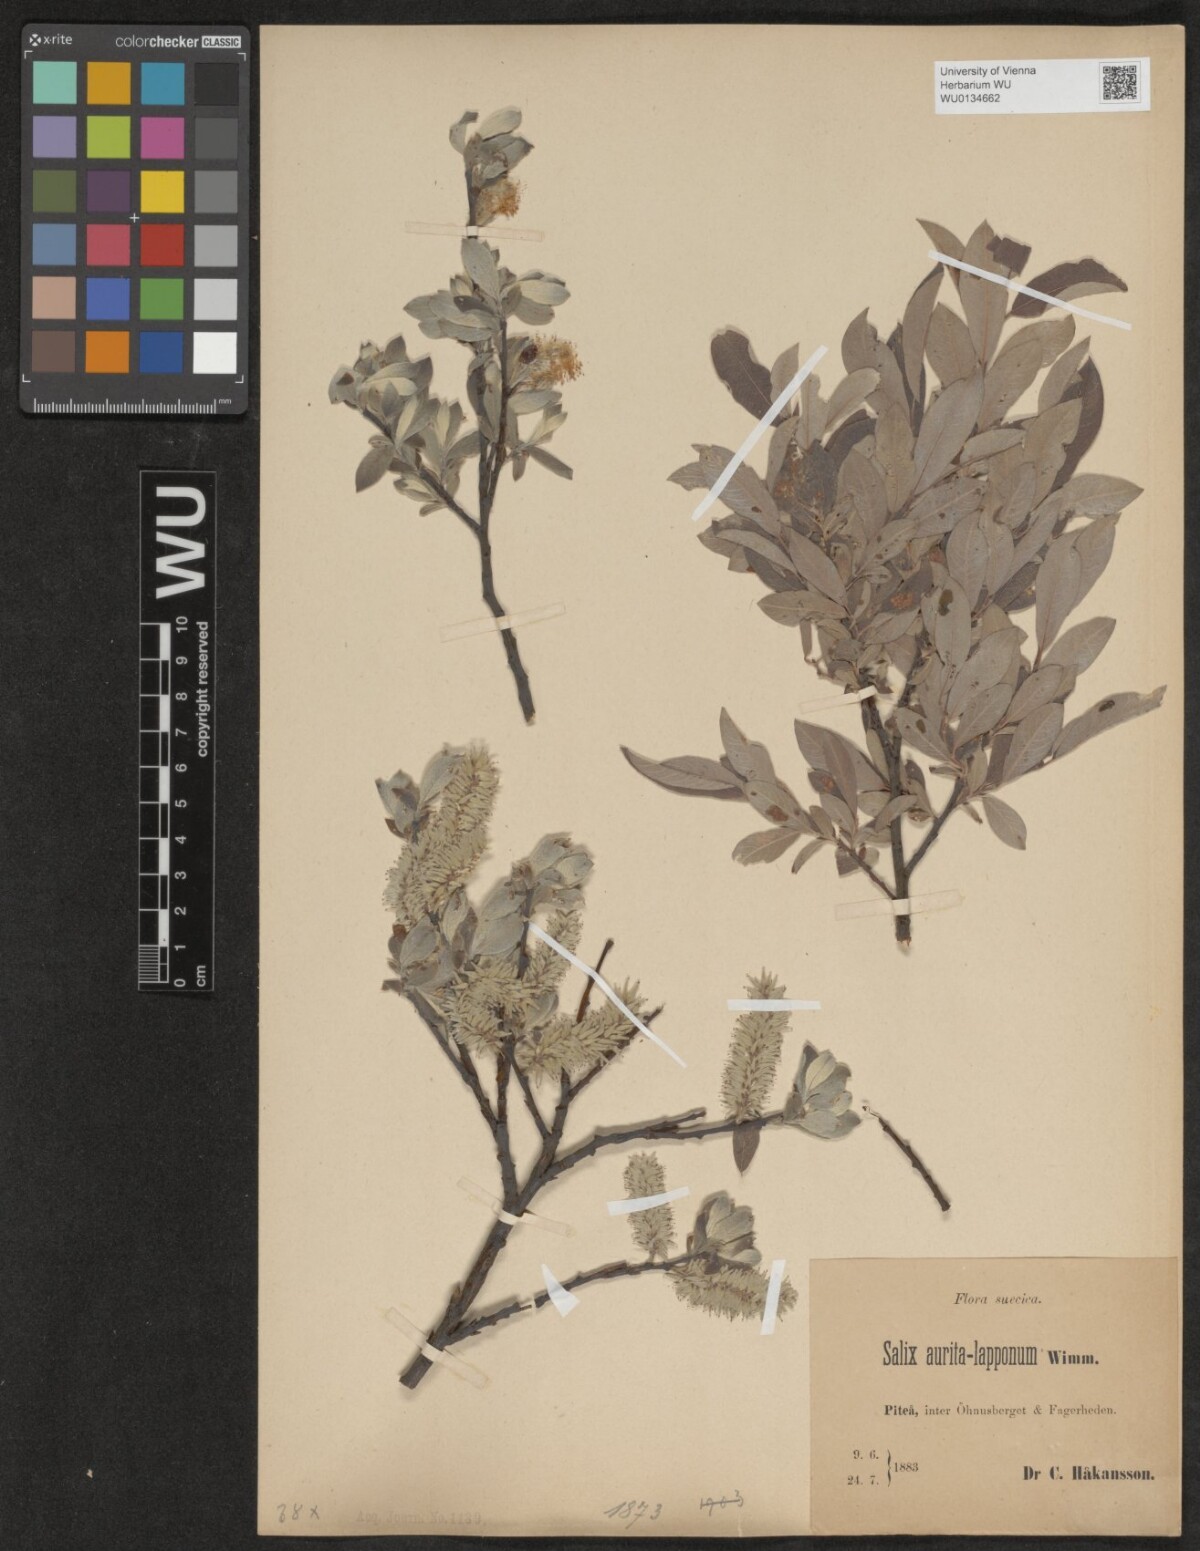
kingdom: Plantae
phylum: Tracheophyta
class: Magnoliopsida
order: Malpighiales
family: Salicaceae
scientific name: Salicaceae
